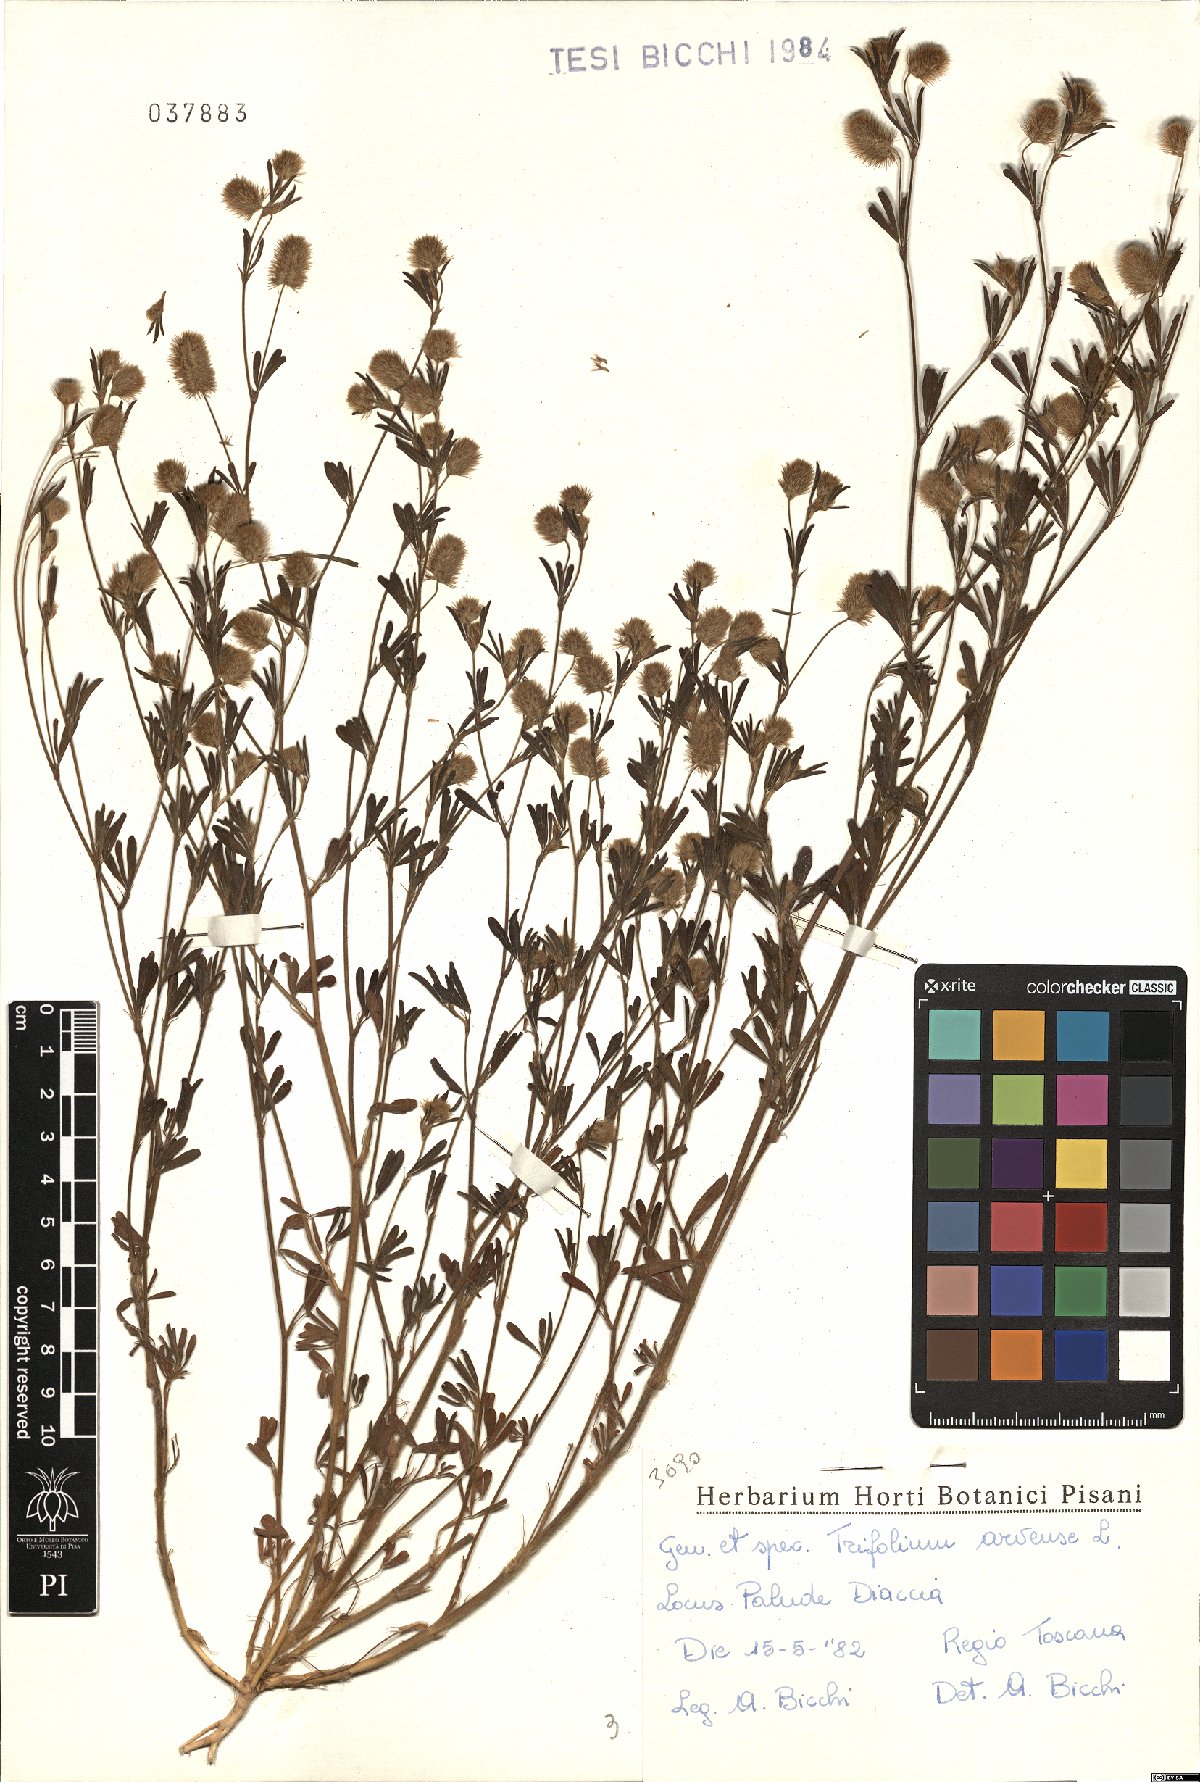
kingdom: Plantae
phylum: Tracheophyta
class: Magnoliopsida
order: Fabales
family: Fabaceae
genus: Trifolium
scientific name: Trifolium arvense
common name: Hare's-foot clover
